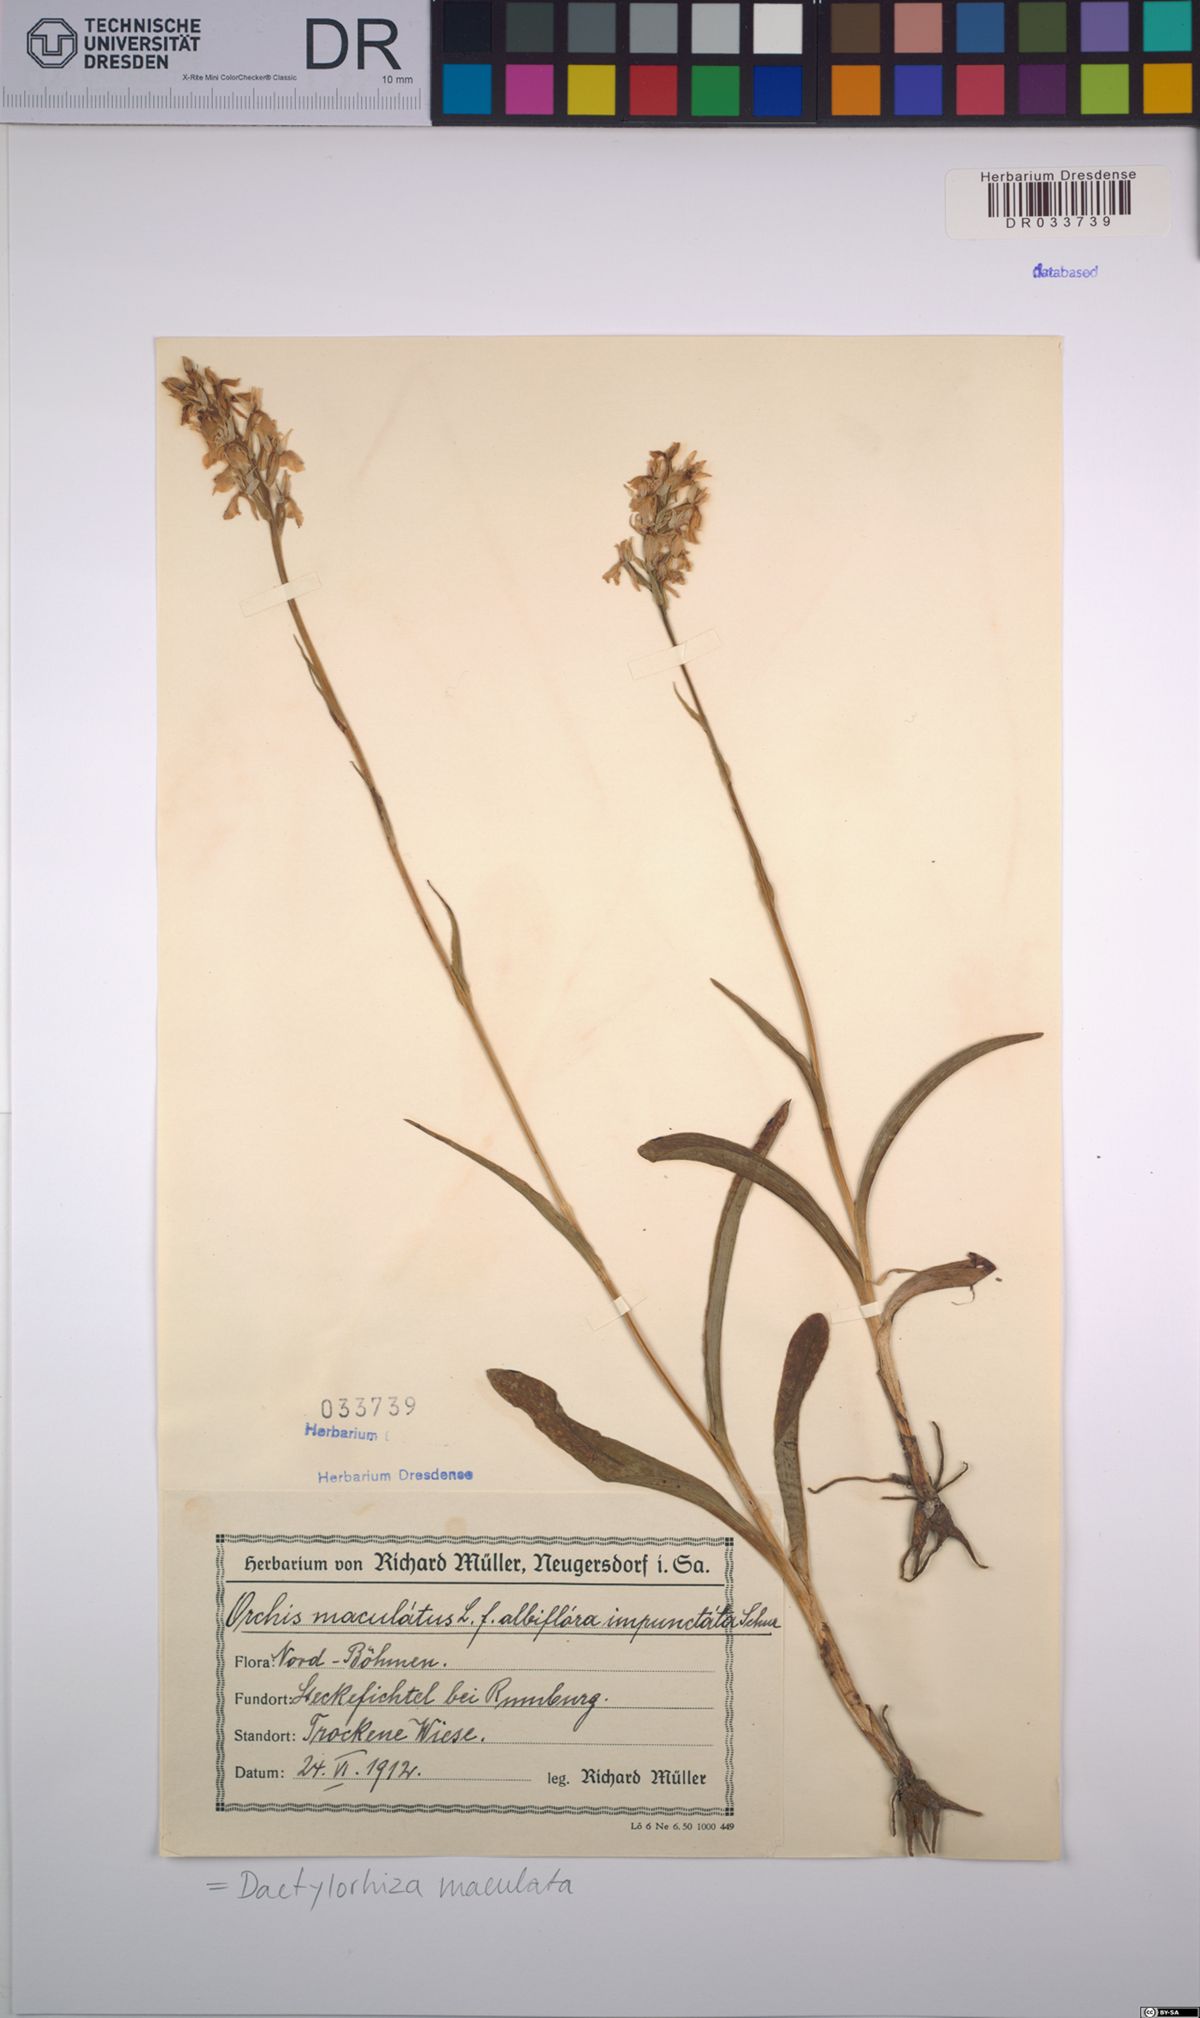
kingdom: Plantae
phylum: Tracheophyta
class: Liliopsida
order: Asparagales
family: Orchidaceae
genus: Dactylorhiza
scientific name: Dactylorhiza maculata
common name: Heath spotted-orchid
